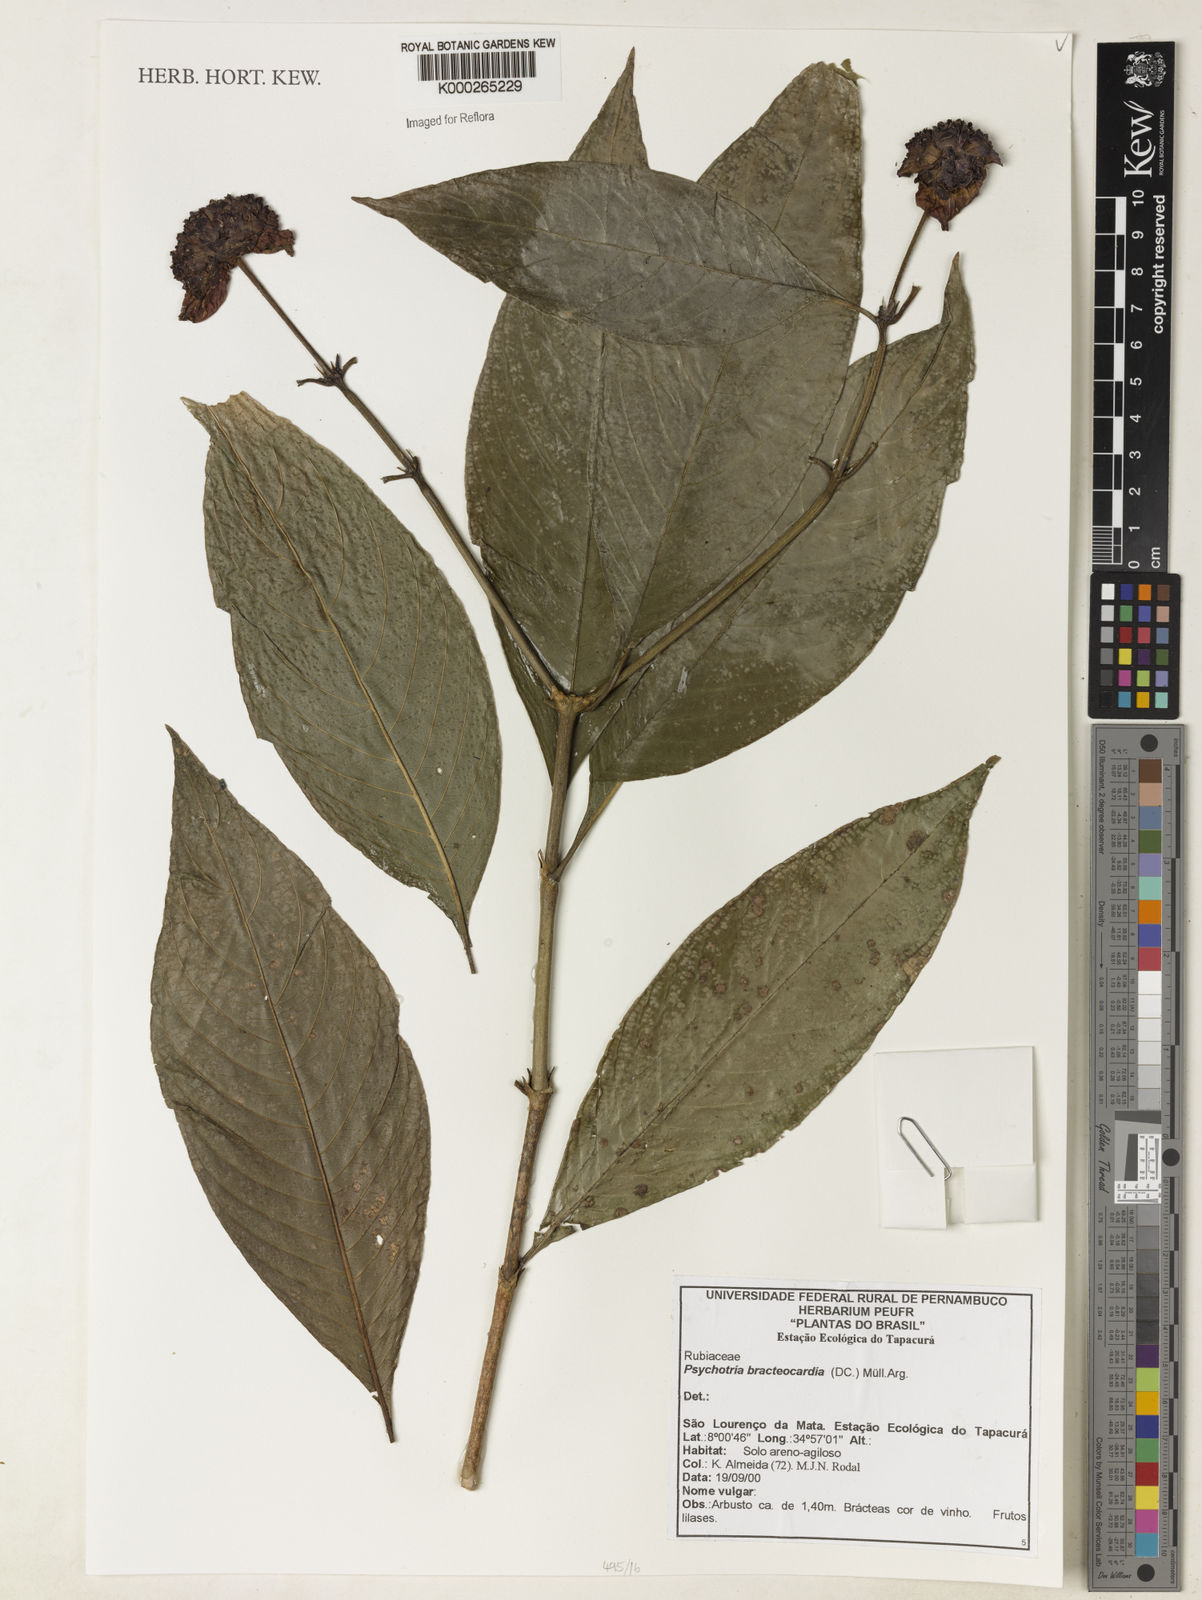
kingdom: Plantae
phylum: Tracheophyta
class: Magnoliopsida
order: Gentianales
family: Rubiaceae
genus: Psychotria
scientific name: Psychotria
